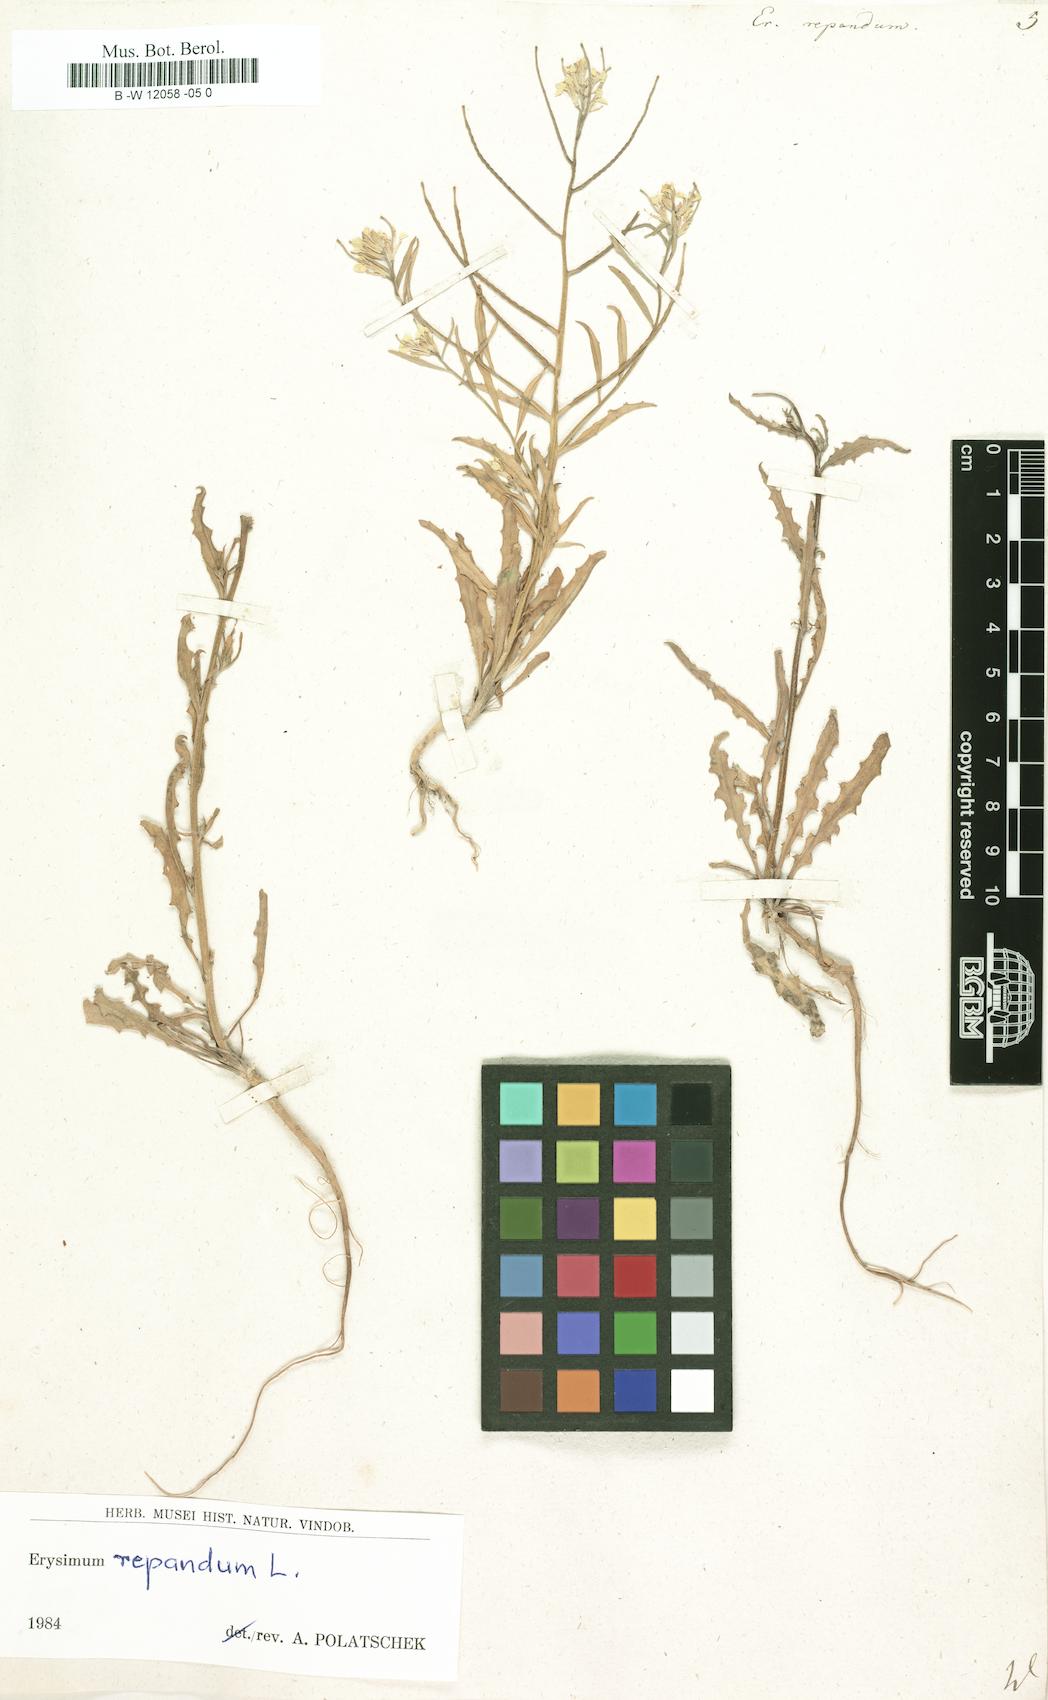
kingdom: Plantae
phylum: Tracheophyta
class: Magnoliopsida
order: Brassicales
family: Brassicaceae
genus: Erysimum
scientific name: Erysimum repandum
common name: Spreading wallflower
